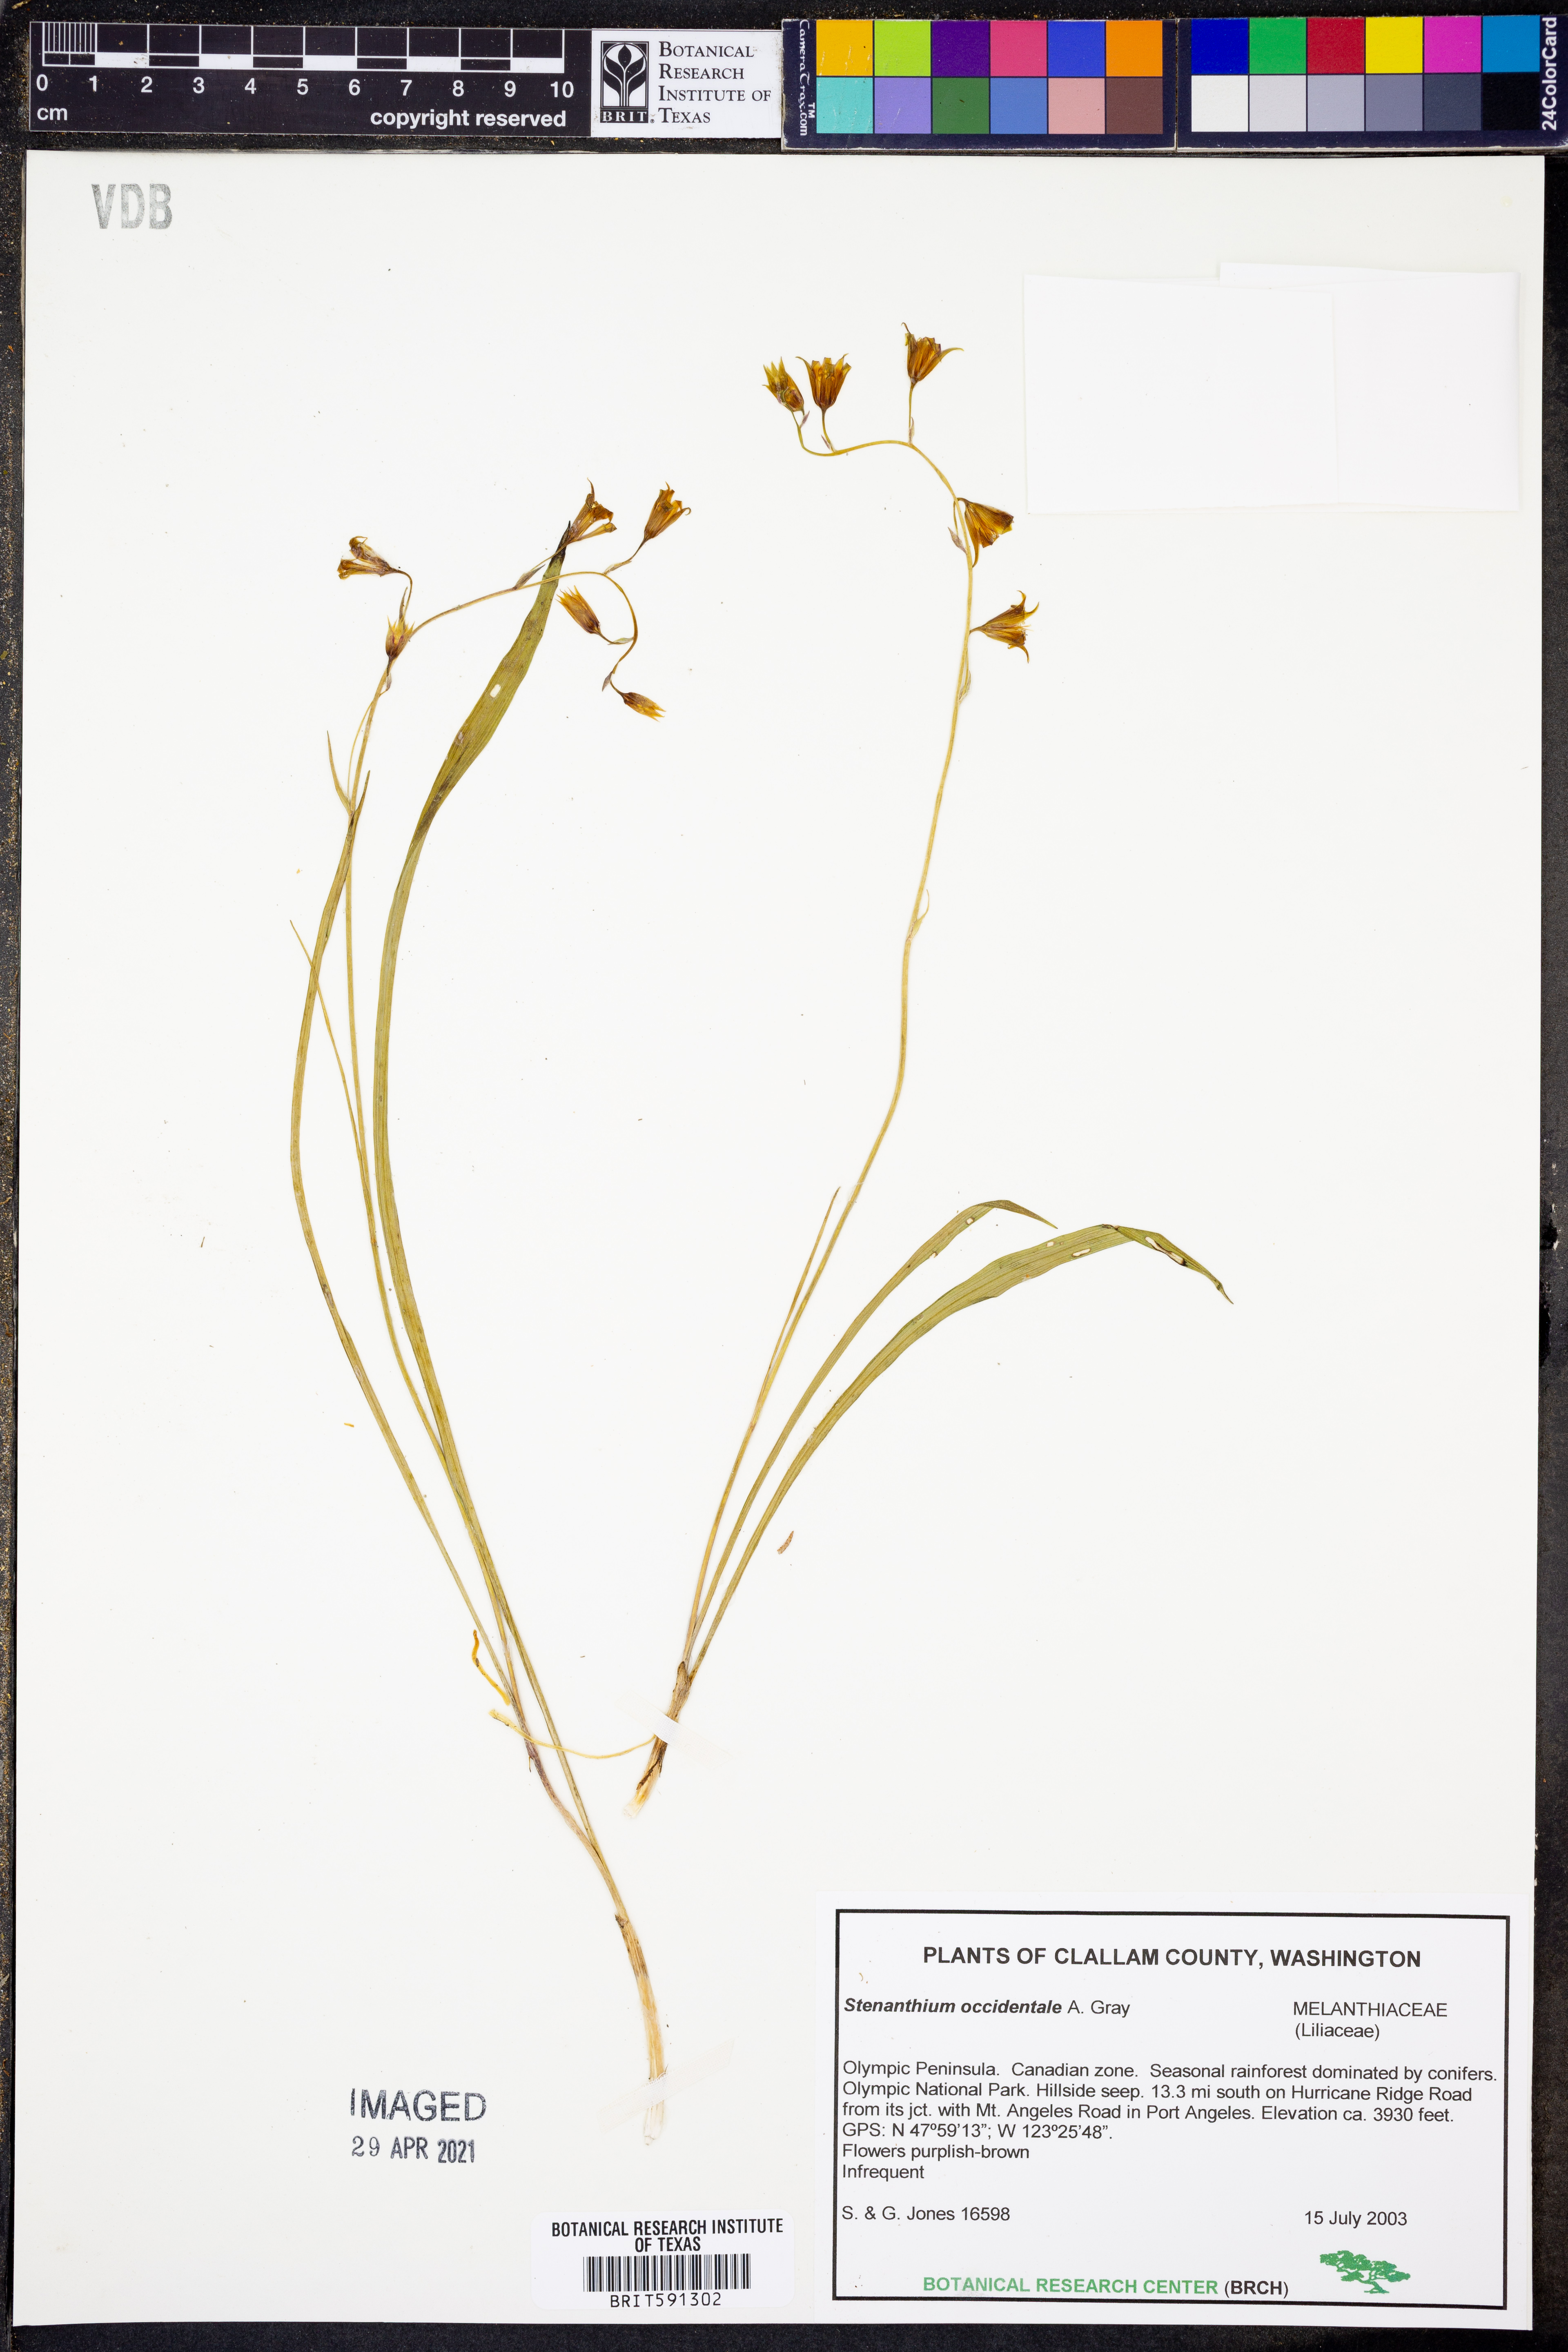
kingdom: Plantae
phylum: Tracheophyta
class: Liliopsida
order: Liliales
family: Melanthiaceae
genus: Anticlea
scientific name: Anticlea occidentalis
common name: Bronze-bells
